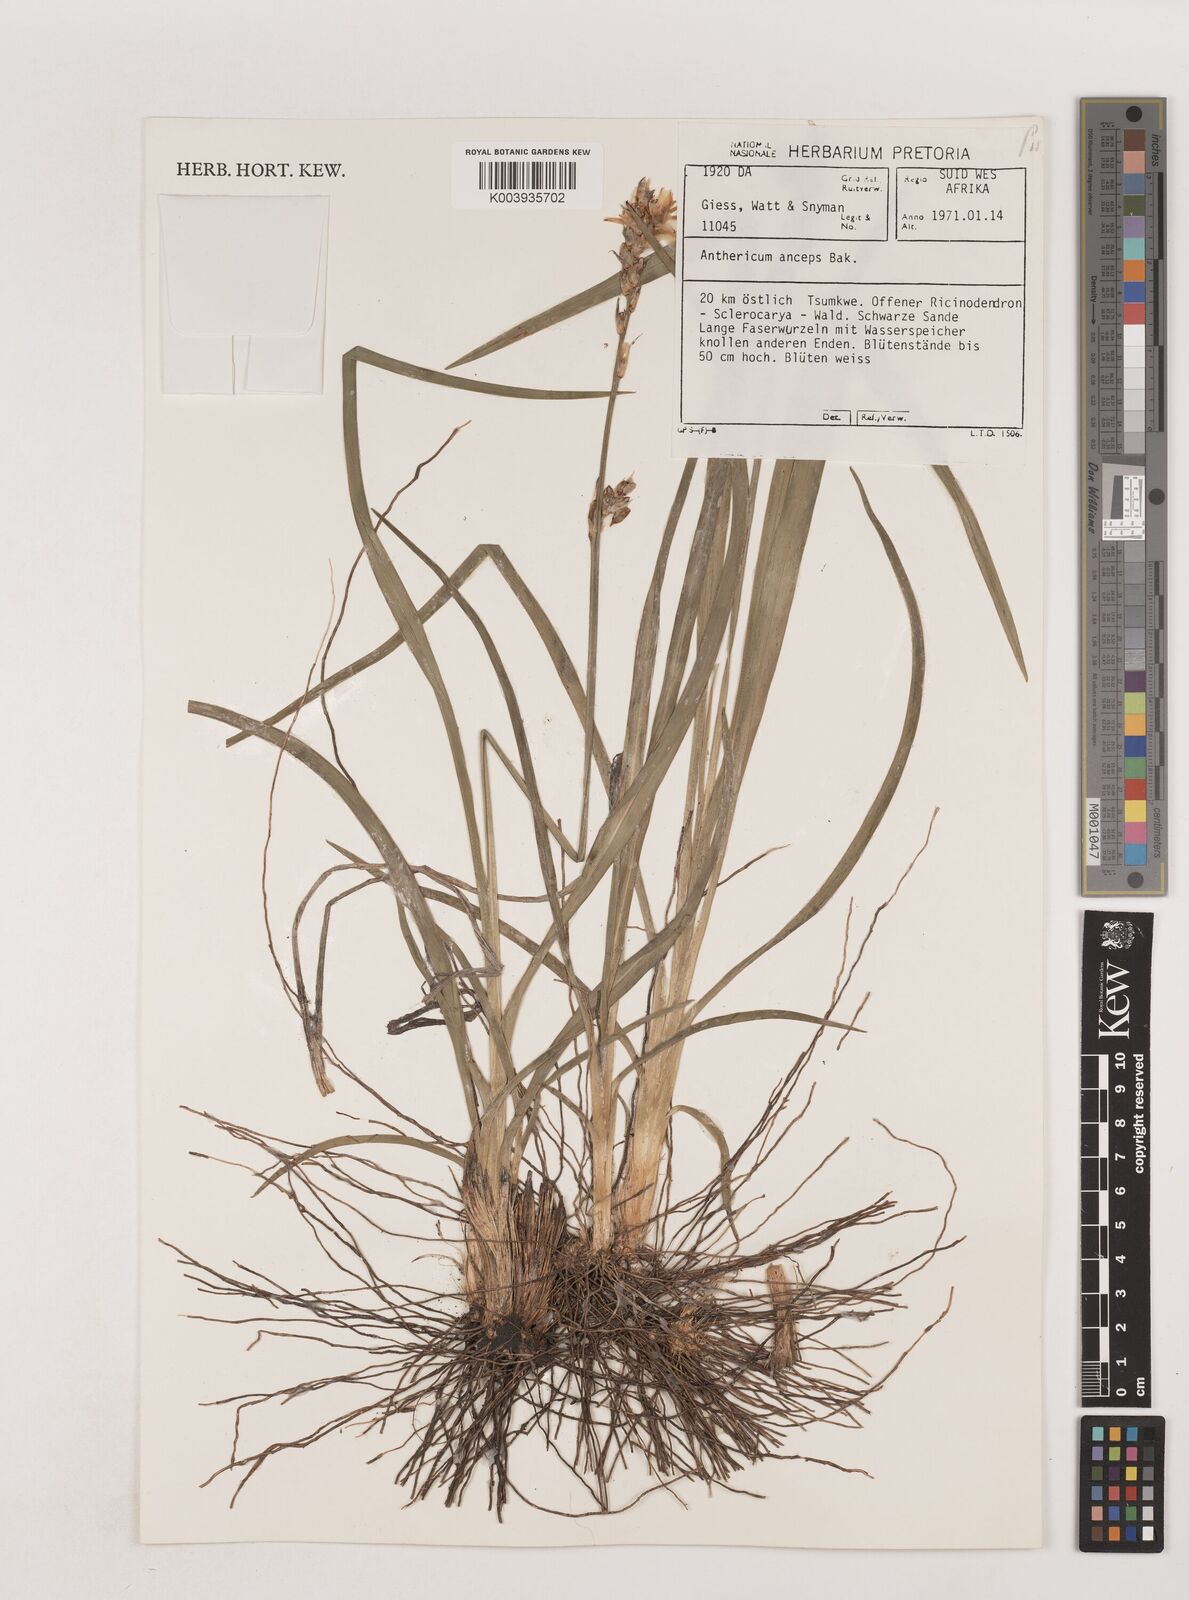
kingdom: Plantae
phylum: Tracheophyta
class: Liliopsida
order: Asparagales
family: Asparagaceae
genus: Chlorophytum
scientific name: Chlorophytum anceps
